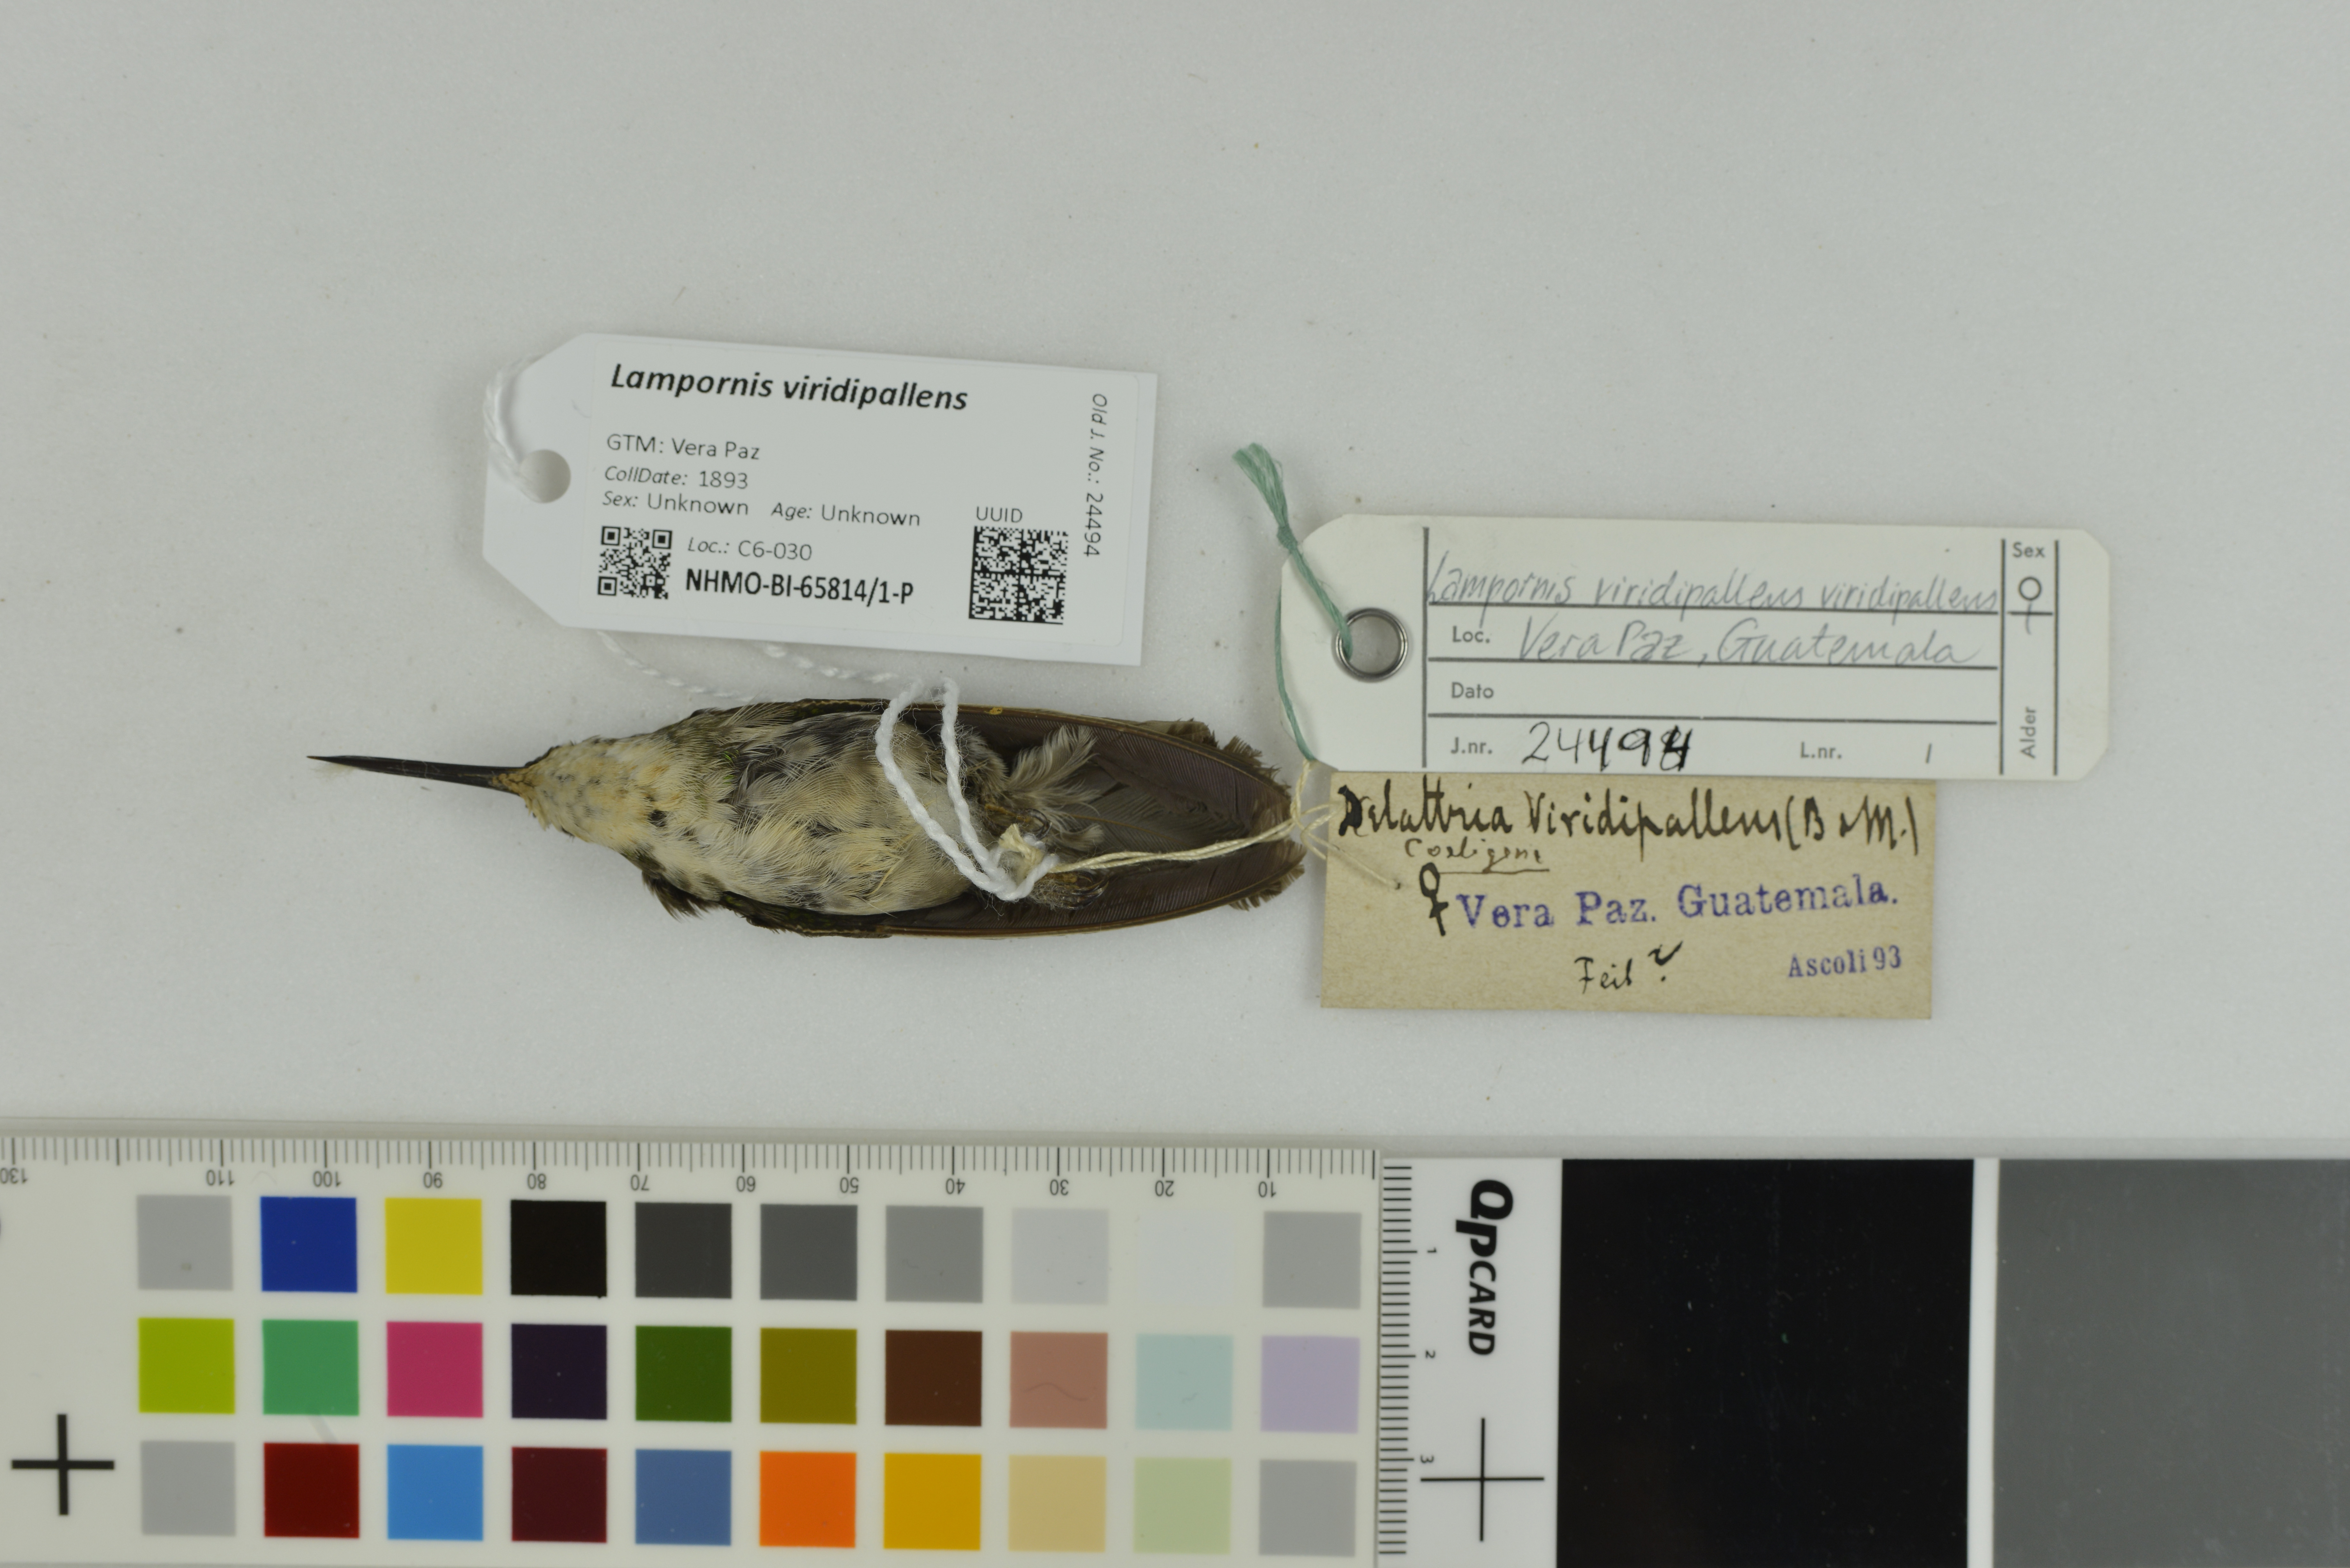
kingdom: Animalia
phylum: Chordata
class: Aves
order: Apodiformes
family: Trochilidae
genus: Lampornis
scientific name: Lampornis viridipallens
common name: Green-throated mountain-gem
